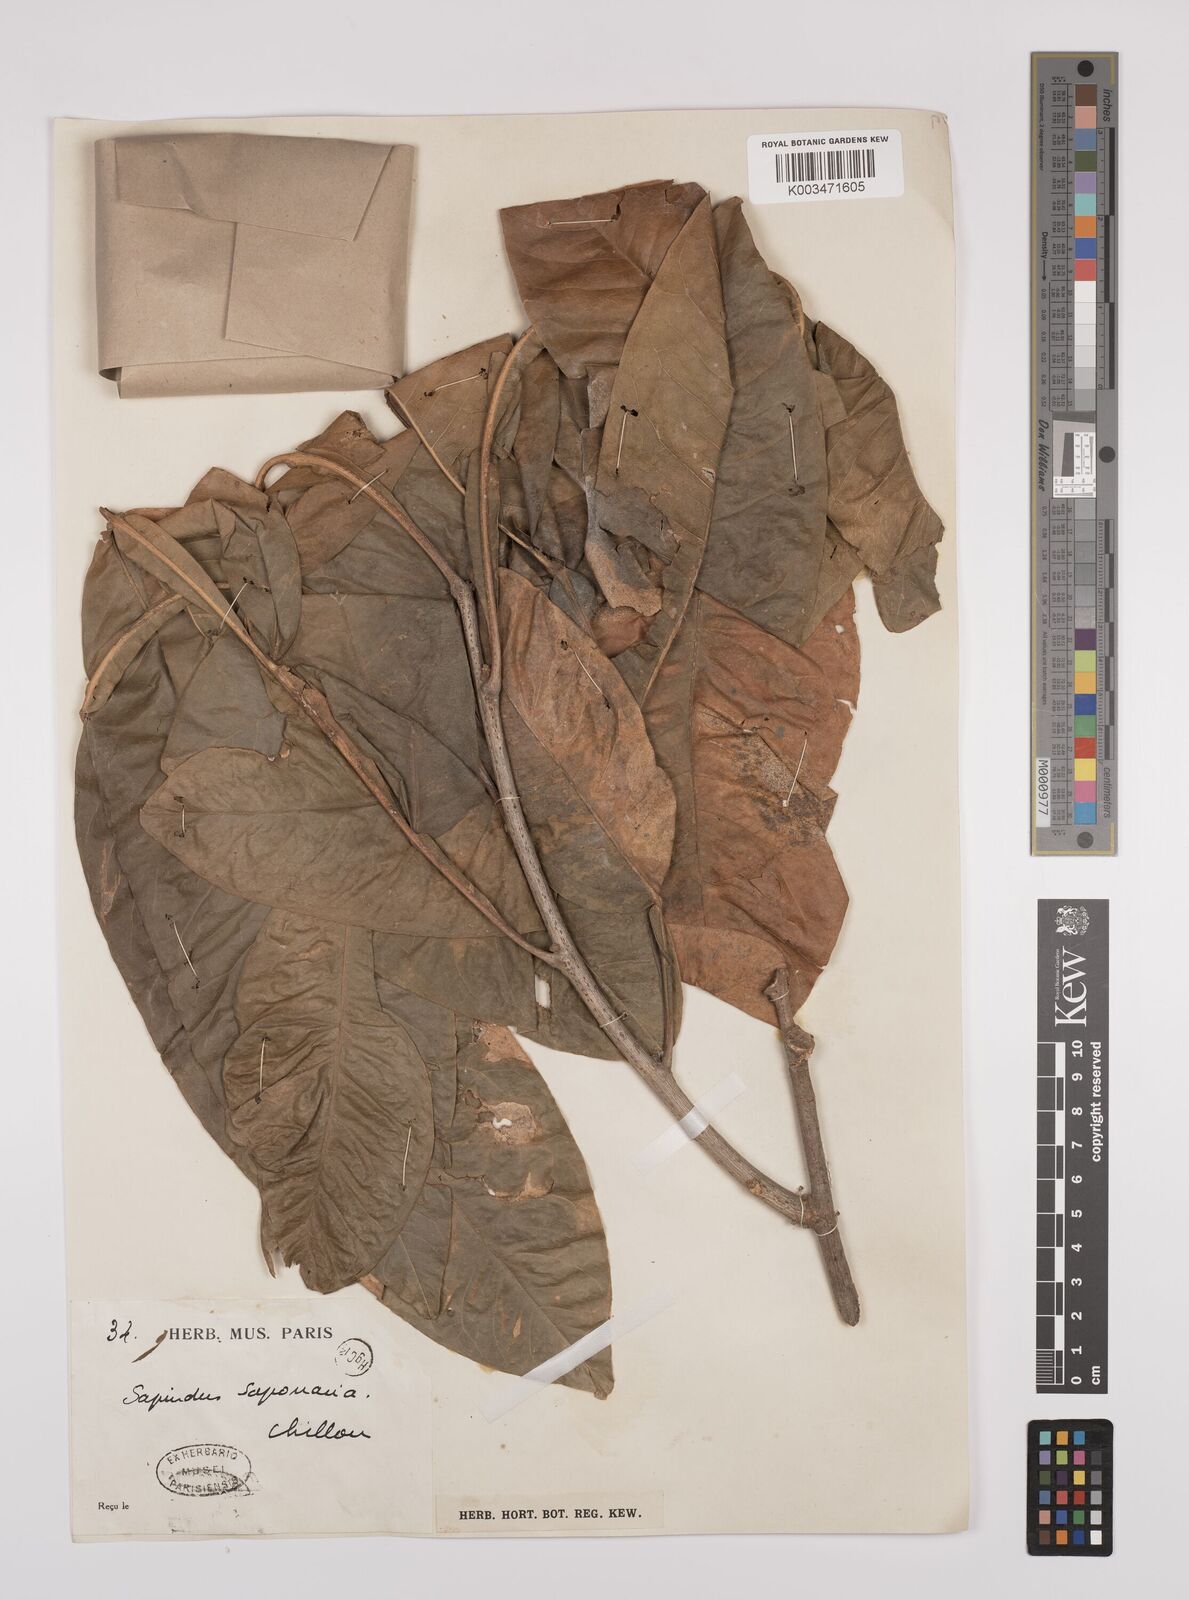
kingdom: Plantae
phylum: Tracheophyta
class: Magnoliopsida
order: Sapindales
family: Sapindaceae
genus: Sapindus
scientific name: Sapindus
